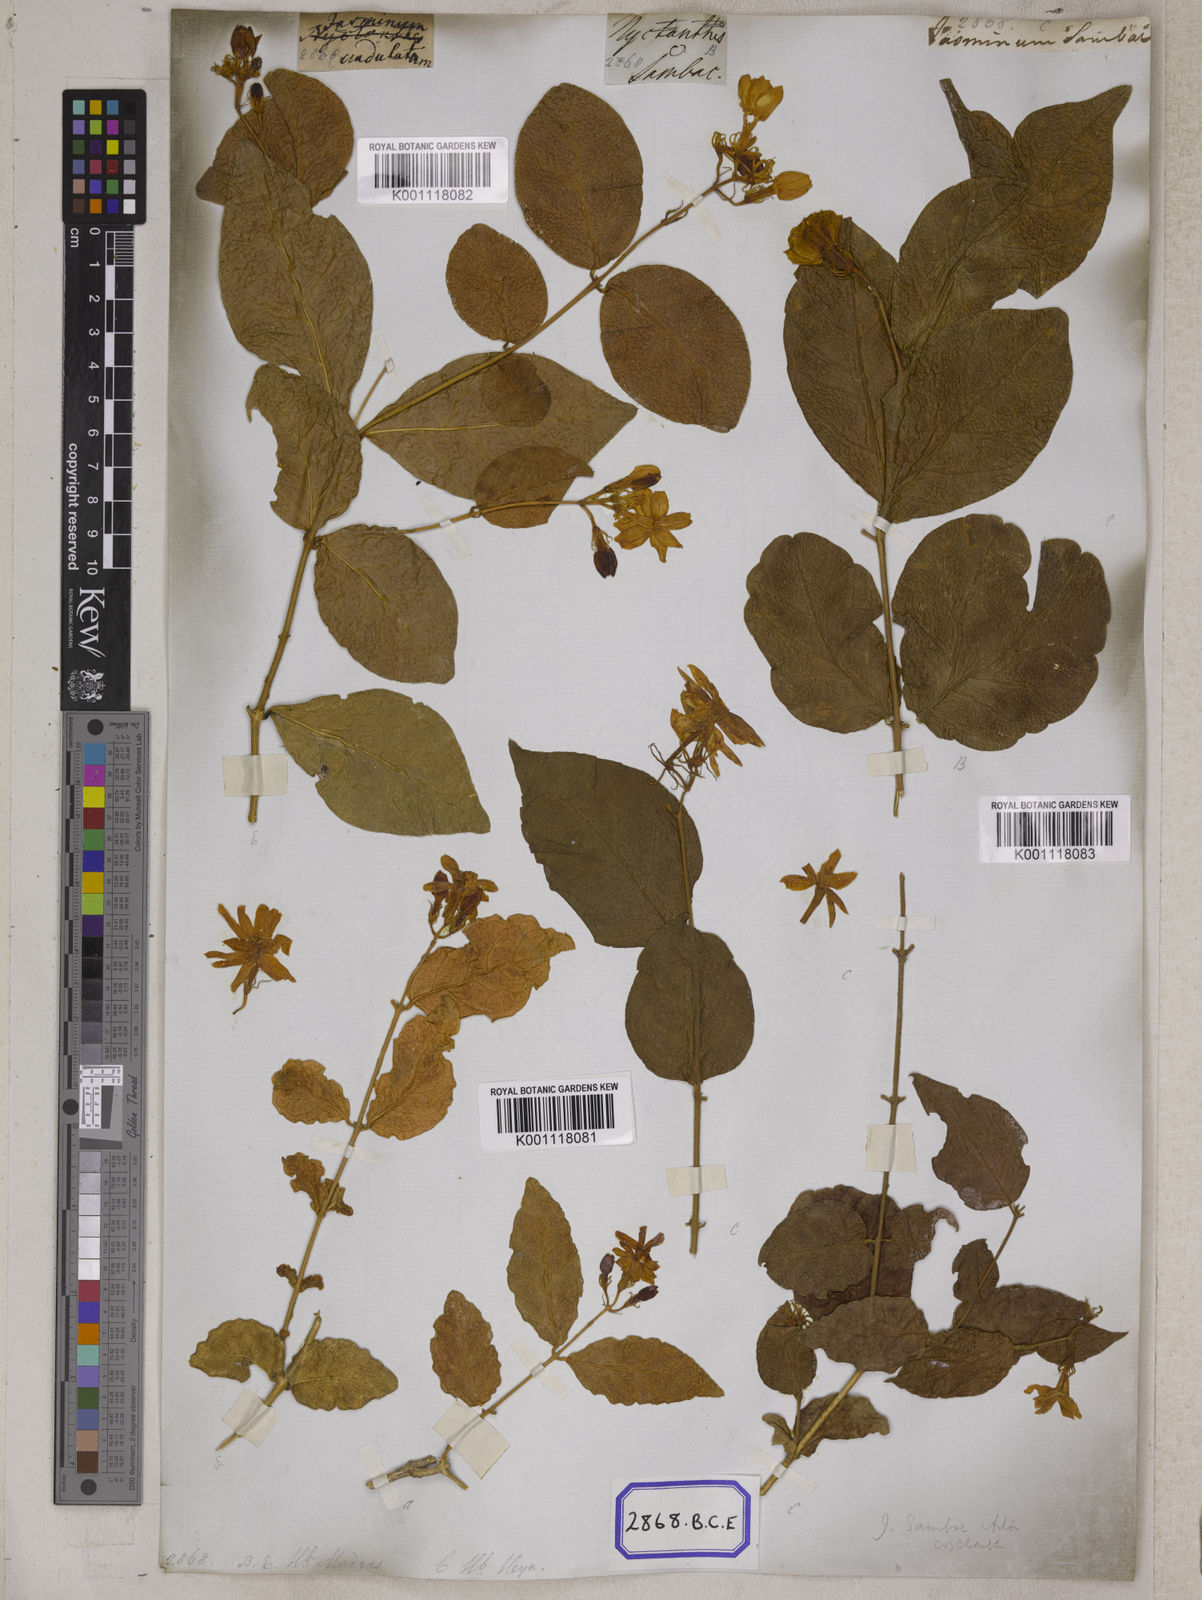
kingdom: Plantae
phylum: Tracheophyta
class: Magnoliopsida
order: Lamiales
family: Oleaceae
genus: Jasminum
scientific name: Jasminum sambac
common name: Arabian jasmine
